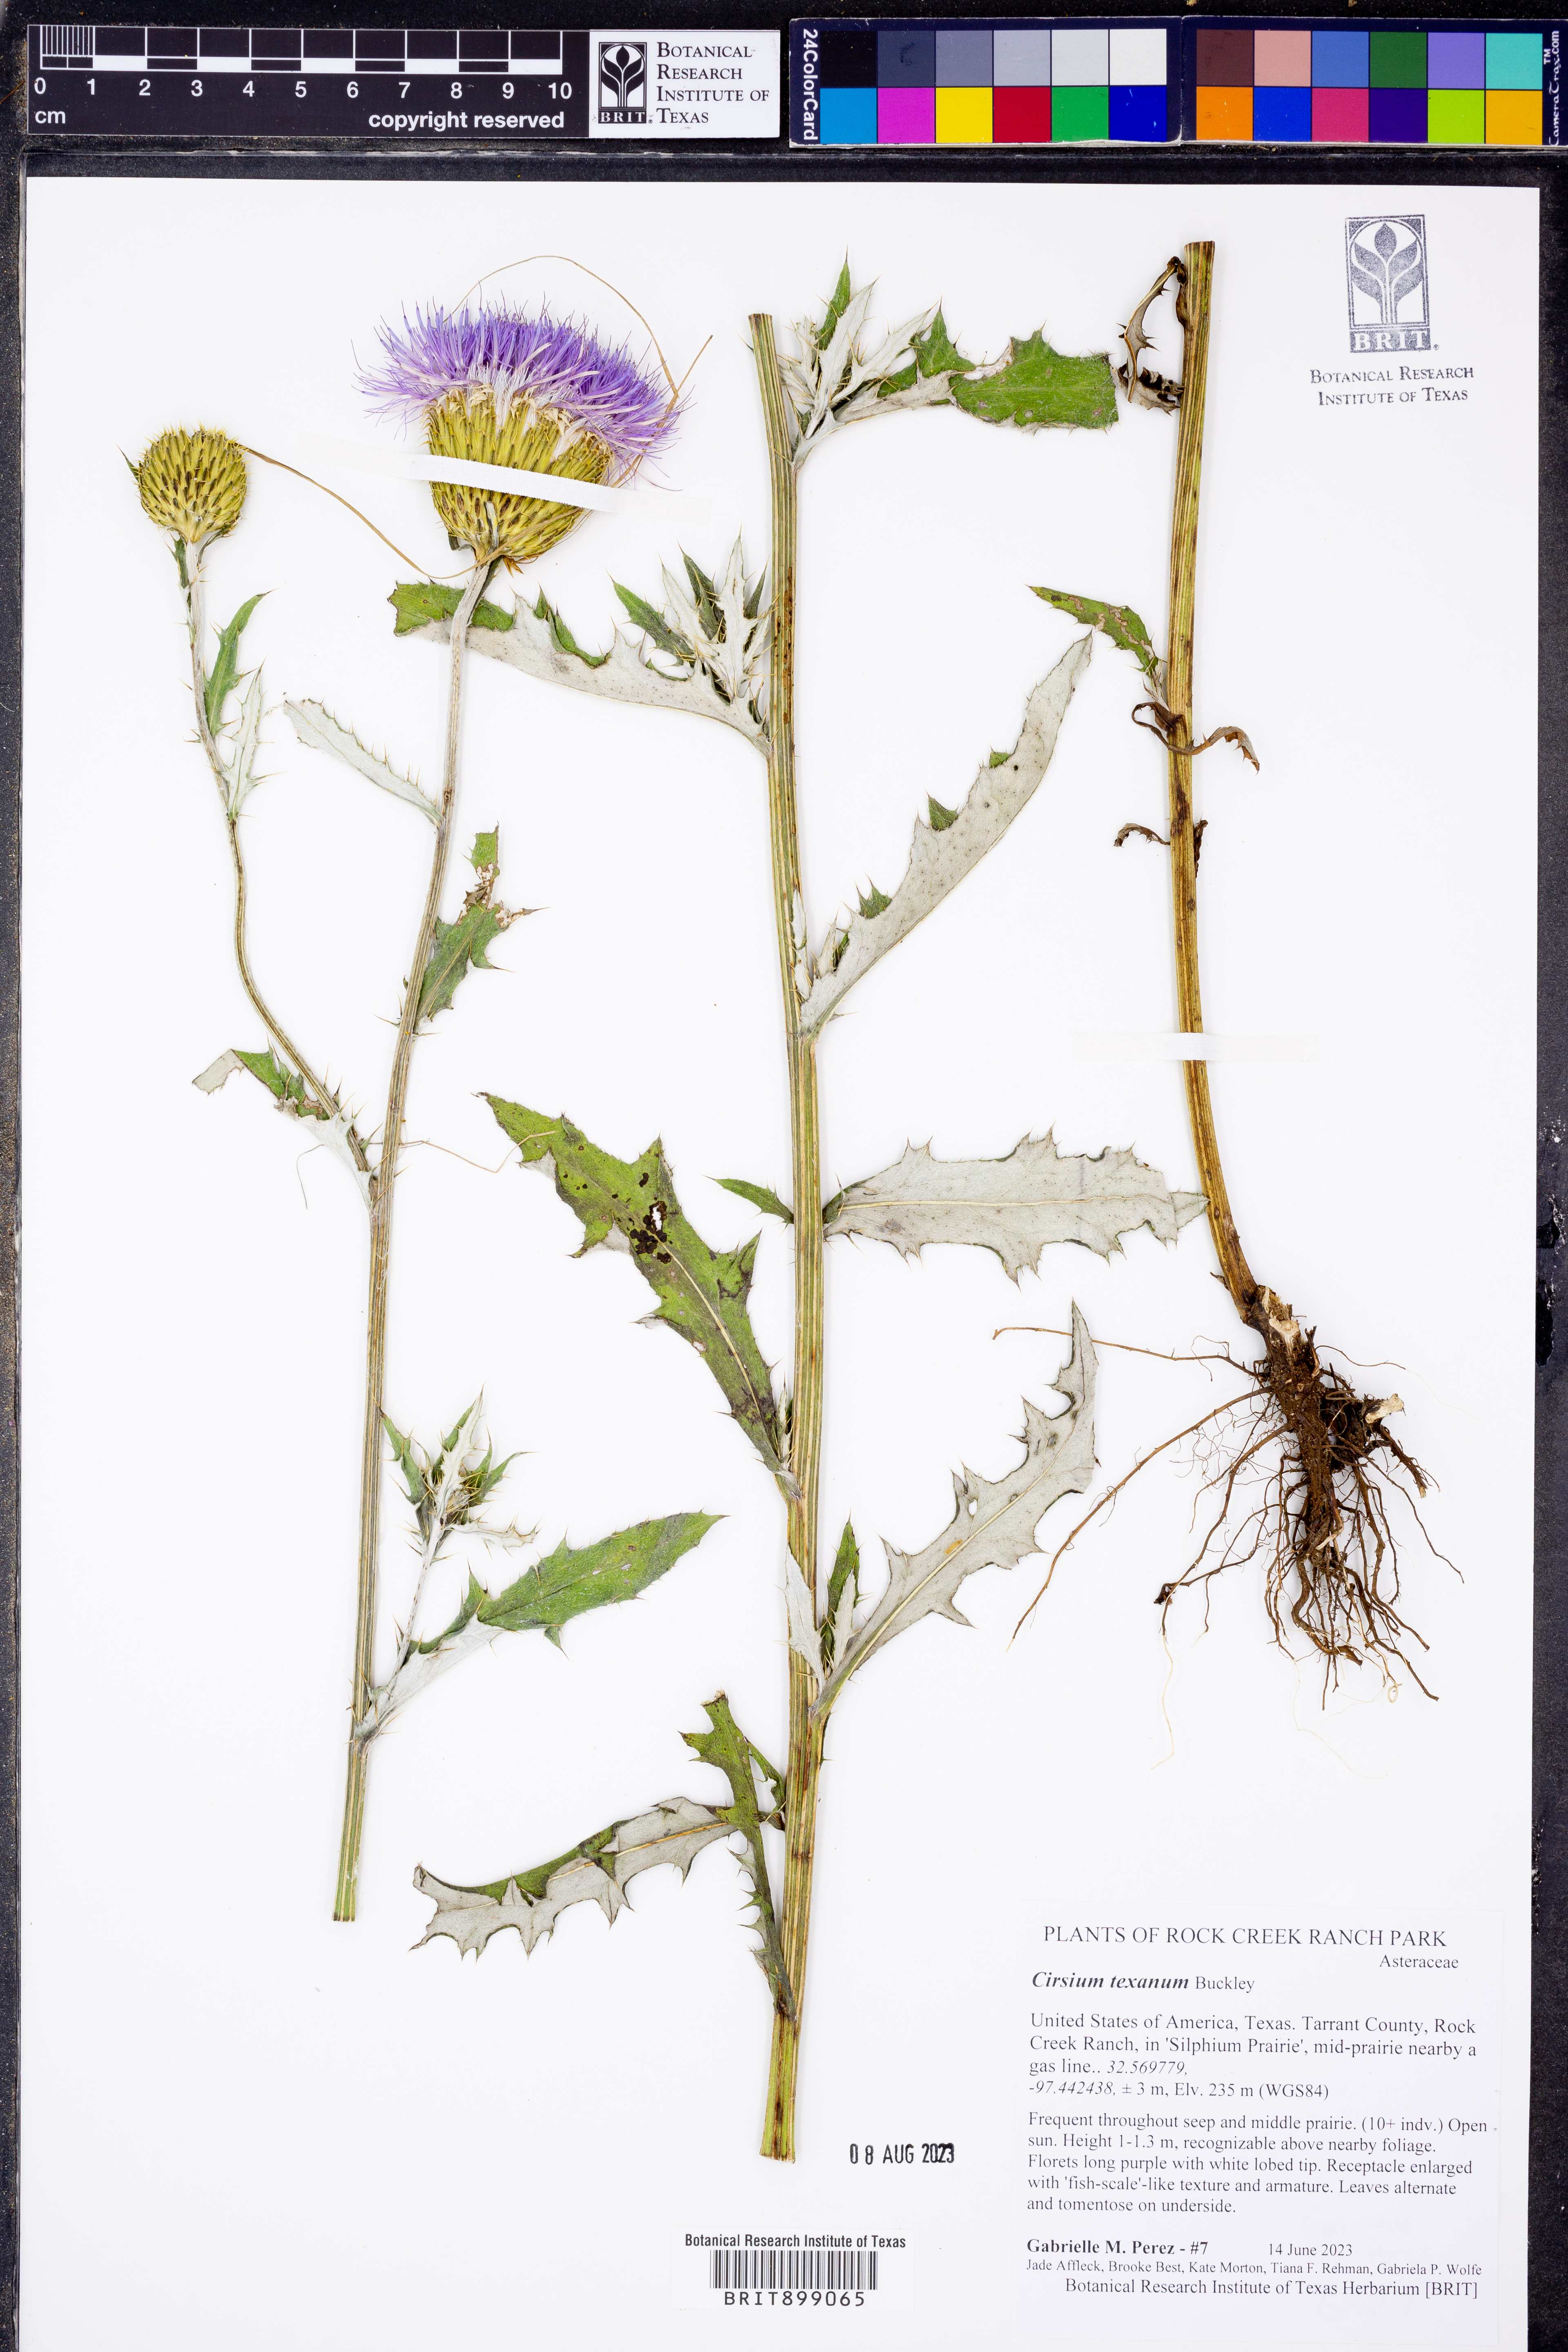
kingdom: Plantae
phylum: Tracheophyta
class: Magnoliopsida
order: Asterales
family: Asteraceae
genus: Cirsium
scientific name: Cirsium texanum
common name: Texas purple thistle
